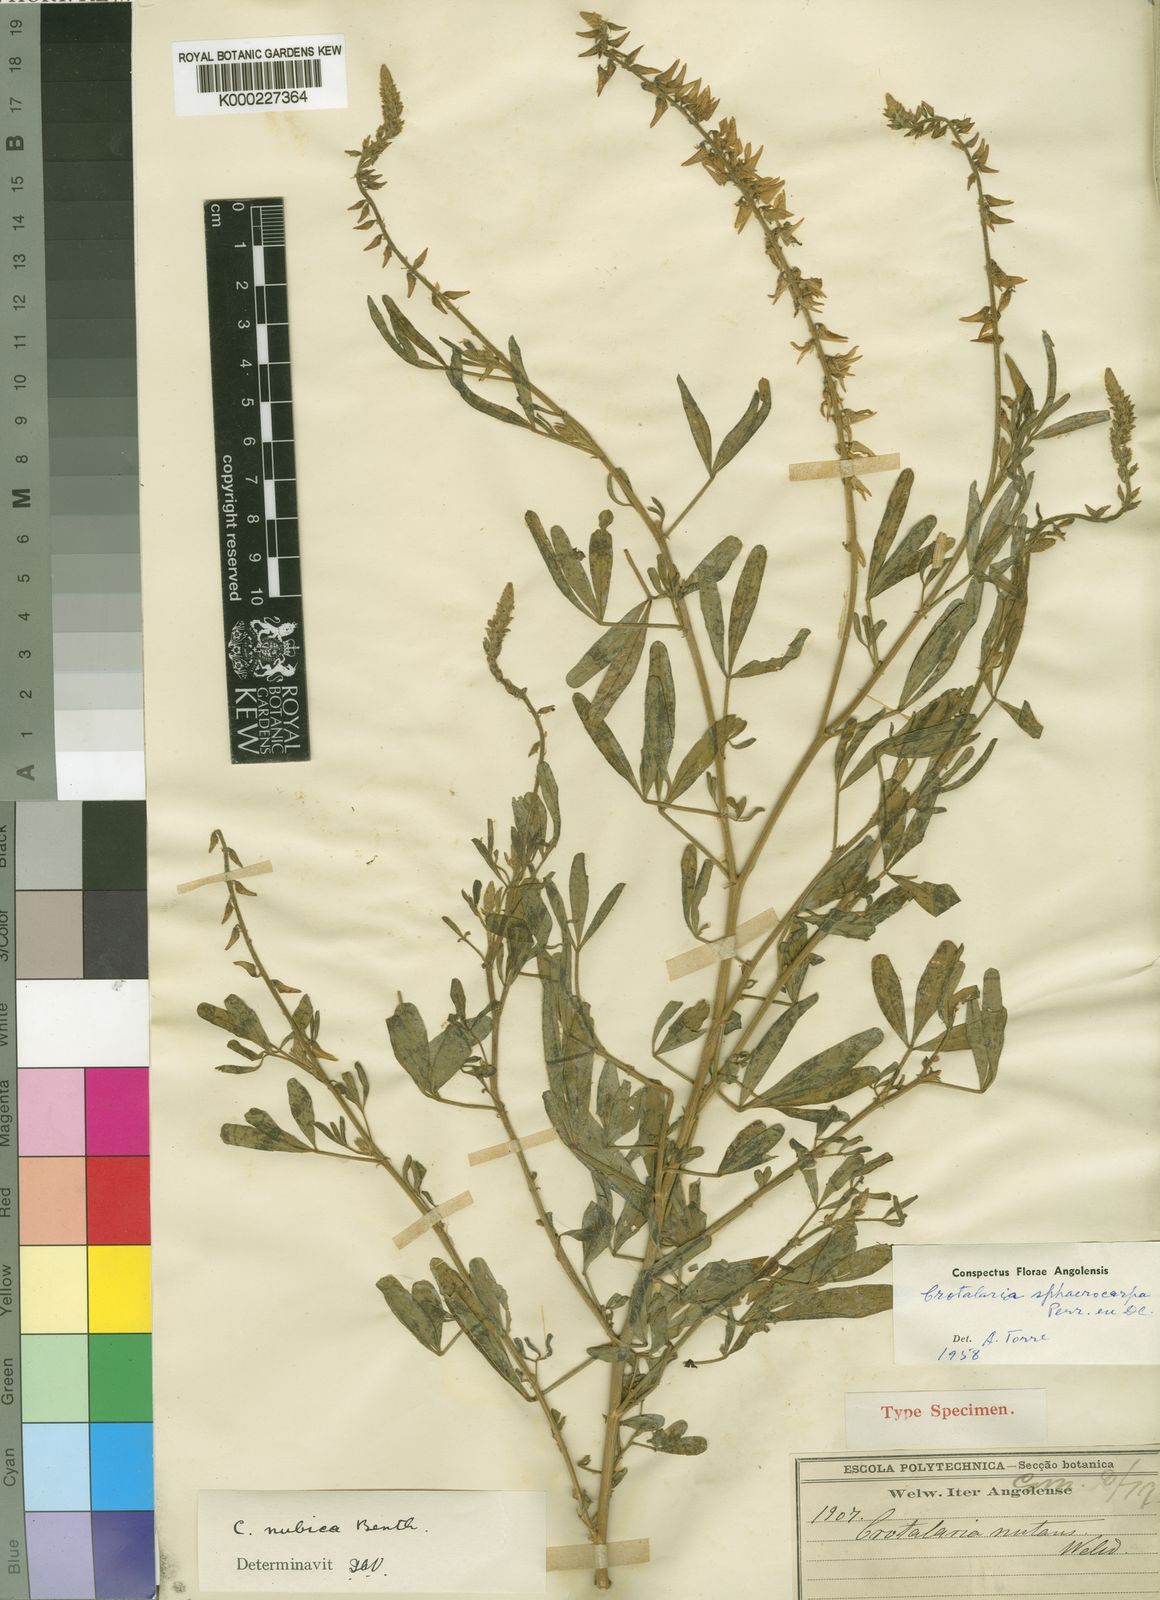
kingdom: Plantae
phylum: Tracheophyta
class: Magnoliopsida
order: Fabales
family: Fabaceae
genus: Crotalaria
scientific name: Crotalaria sphaerocarpa
